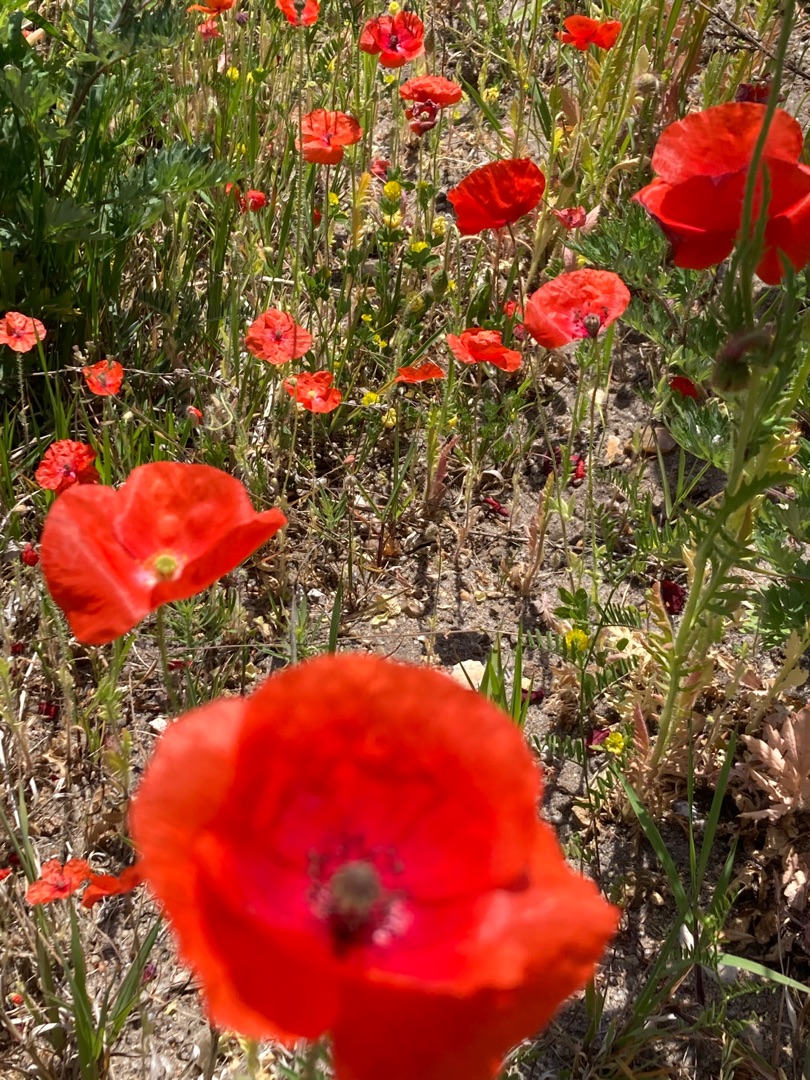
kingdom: Plantae
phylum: Tracheophyta
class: Magnoliopsida
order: Ranunculales
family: Papaveraceae
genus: Papaver
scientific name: Papaver rhoeas
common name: Korn-valmue
